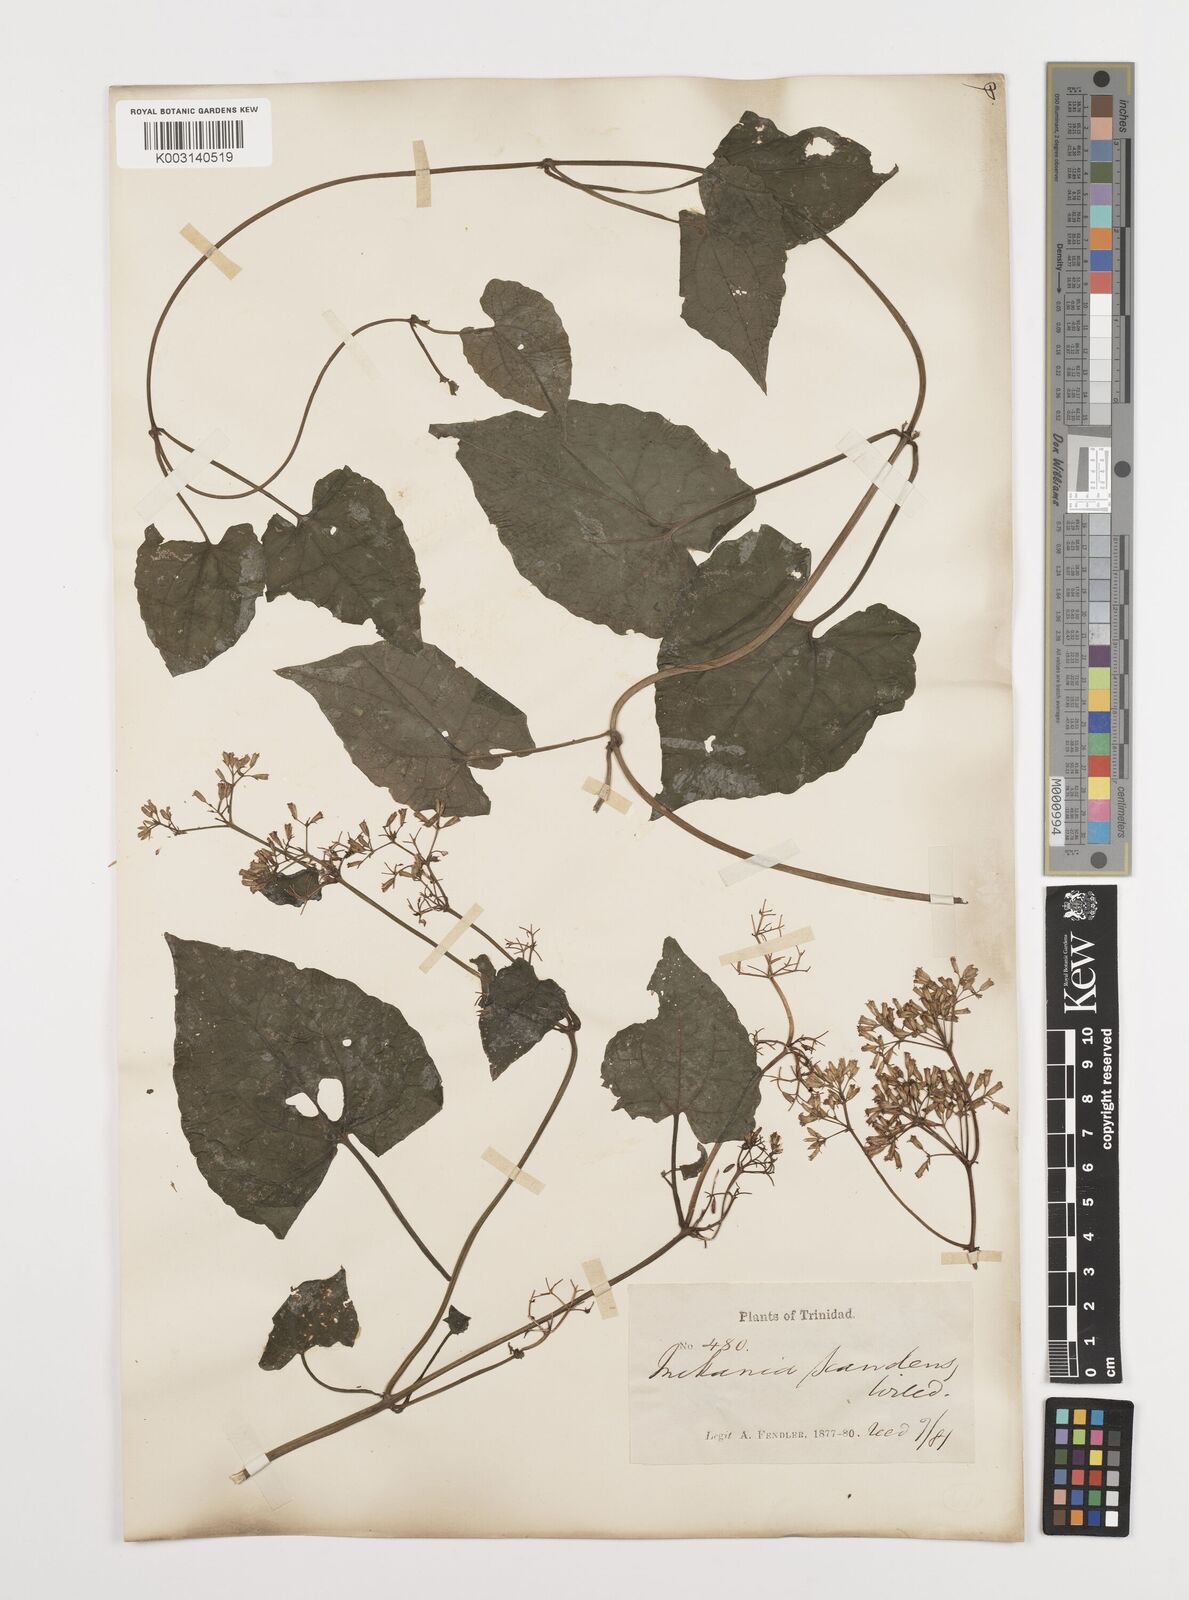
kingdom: Plantae
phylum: Tracheophyta
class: Magnoliopsida
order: Asterales
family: Asteraceae
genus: Mikania
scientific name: Mikania micrantha
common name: Mile-a-minute
